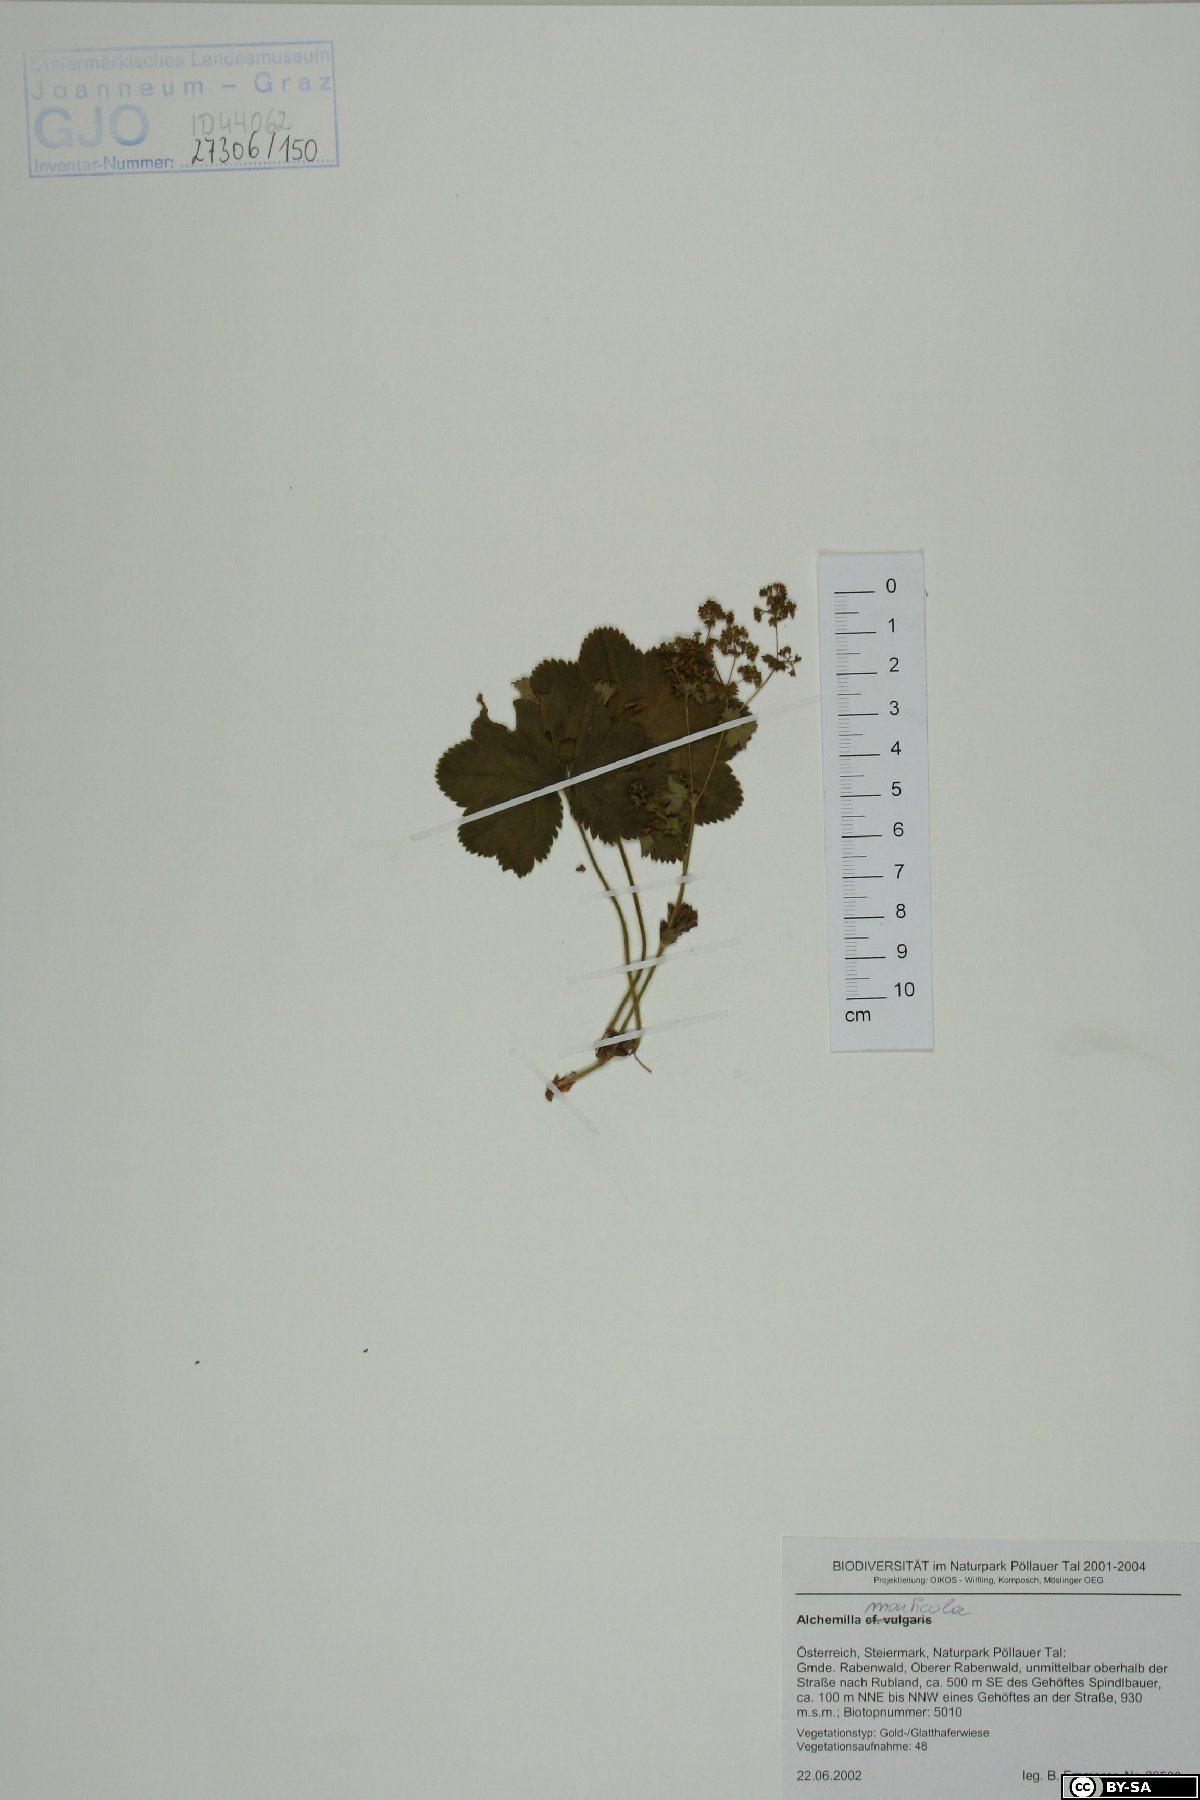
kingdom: Plantae
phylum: Tracheophyta
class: Magnoliopsida
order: Rosales
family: Rosaceae
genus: Alchemilla
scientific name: Alchemilla monticola
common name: Hairy lady's mantle
